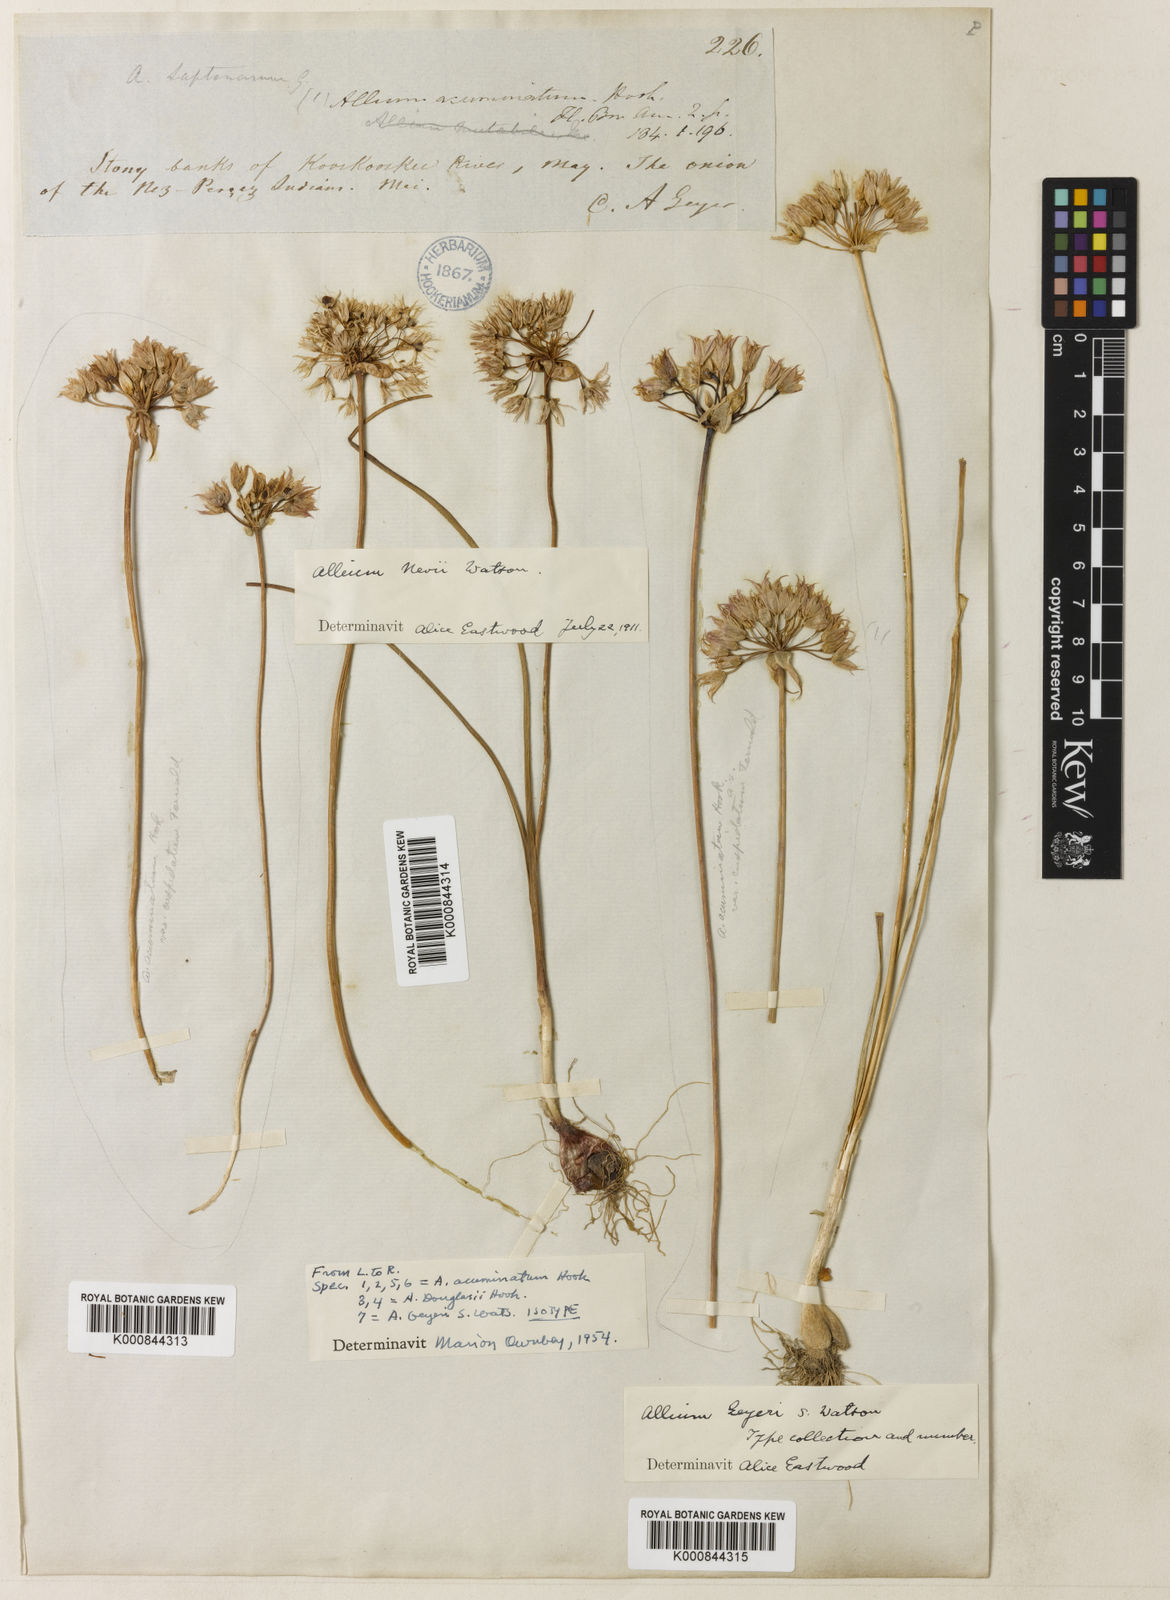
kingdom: Plantae
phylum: Tracheophyta
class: Liliopsida
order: Asparagales
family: Amaryllidaceae
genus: Allium
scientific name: Allium geyeri
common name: Geyer's onion
